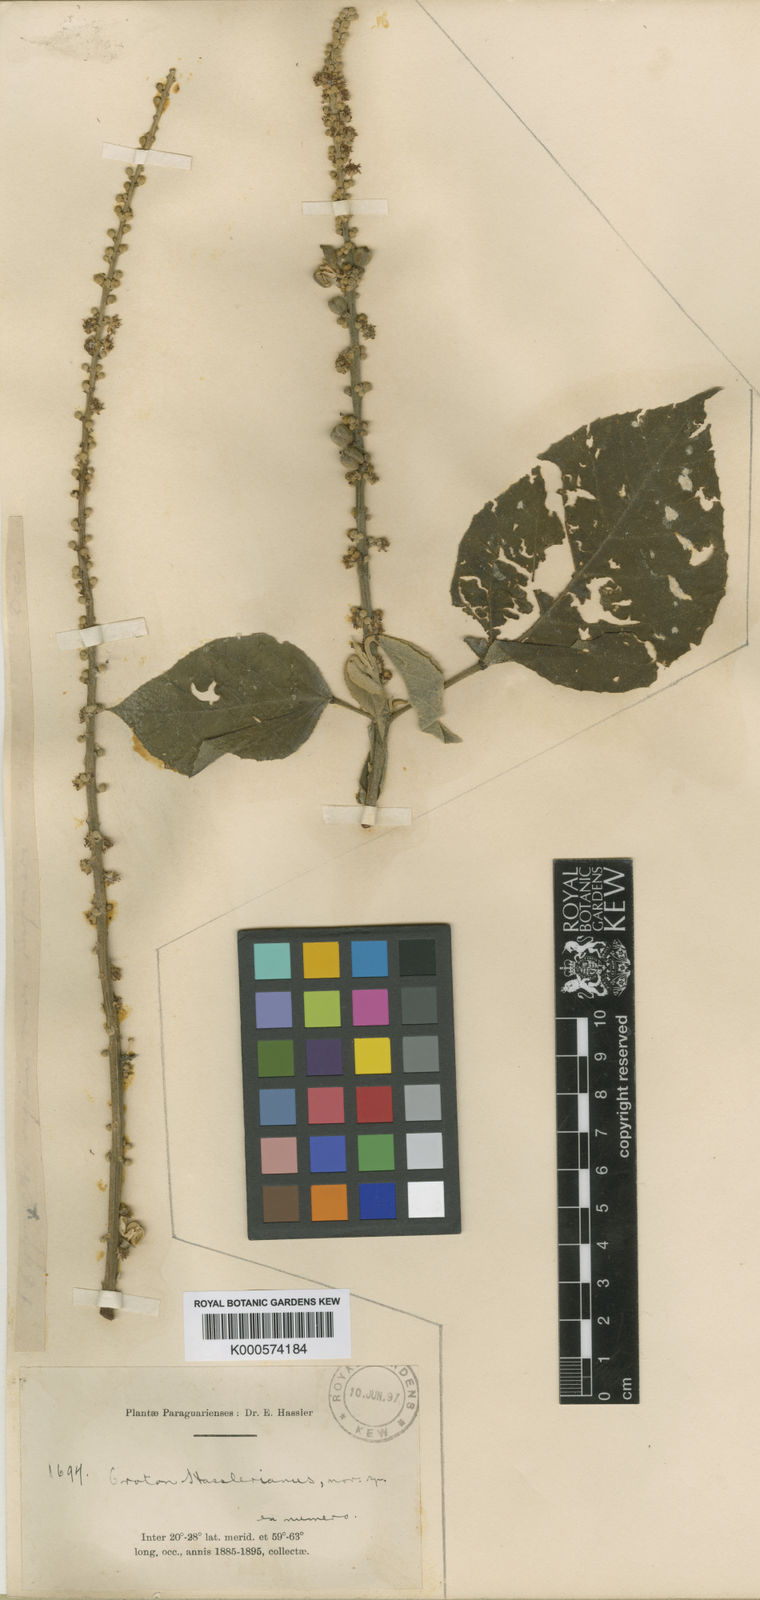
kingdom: Plantae
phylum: Tracheophyta
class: Magnoliopsida
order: Malpighiales
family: Euphorbiaceae
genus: Croton
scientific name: Croton hasslerianus
